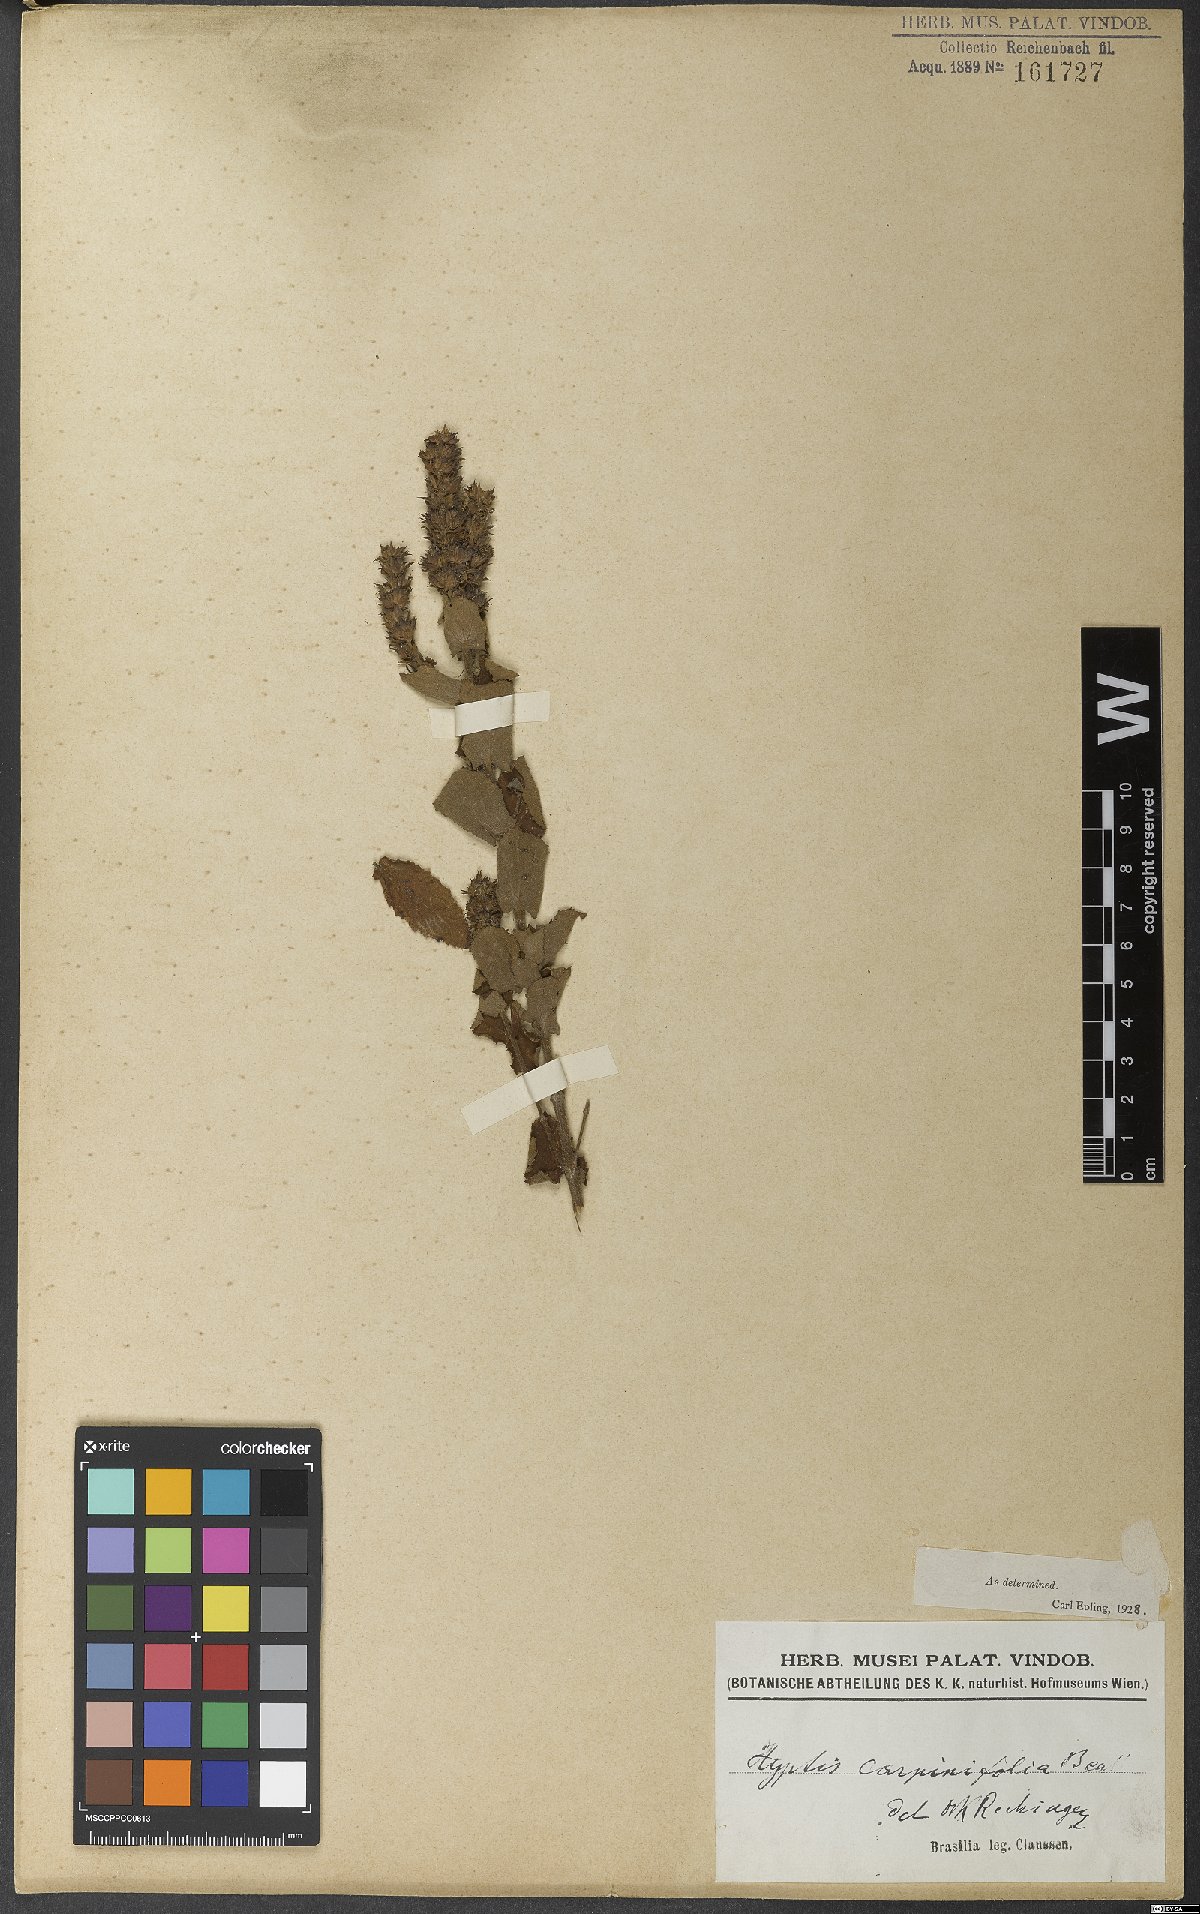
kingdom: Plantae
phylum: Tracheophyta
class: Magnoliopsida
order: Lamiales
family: Lamiaceae
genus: Cantinoa
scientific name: Cantinoa carpinifolia
